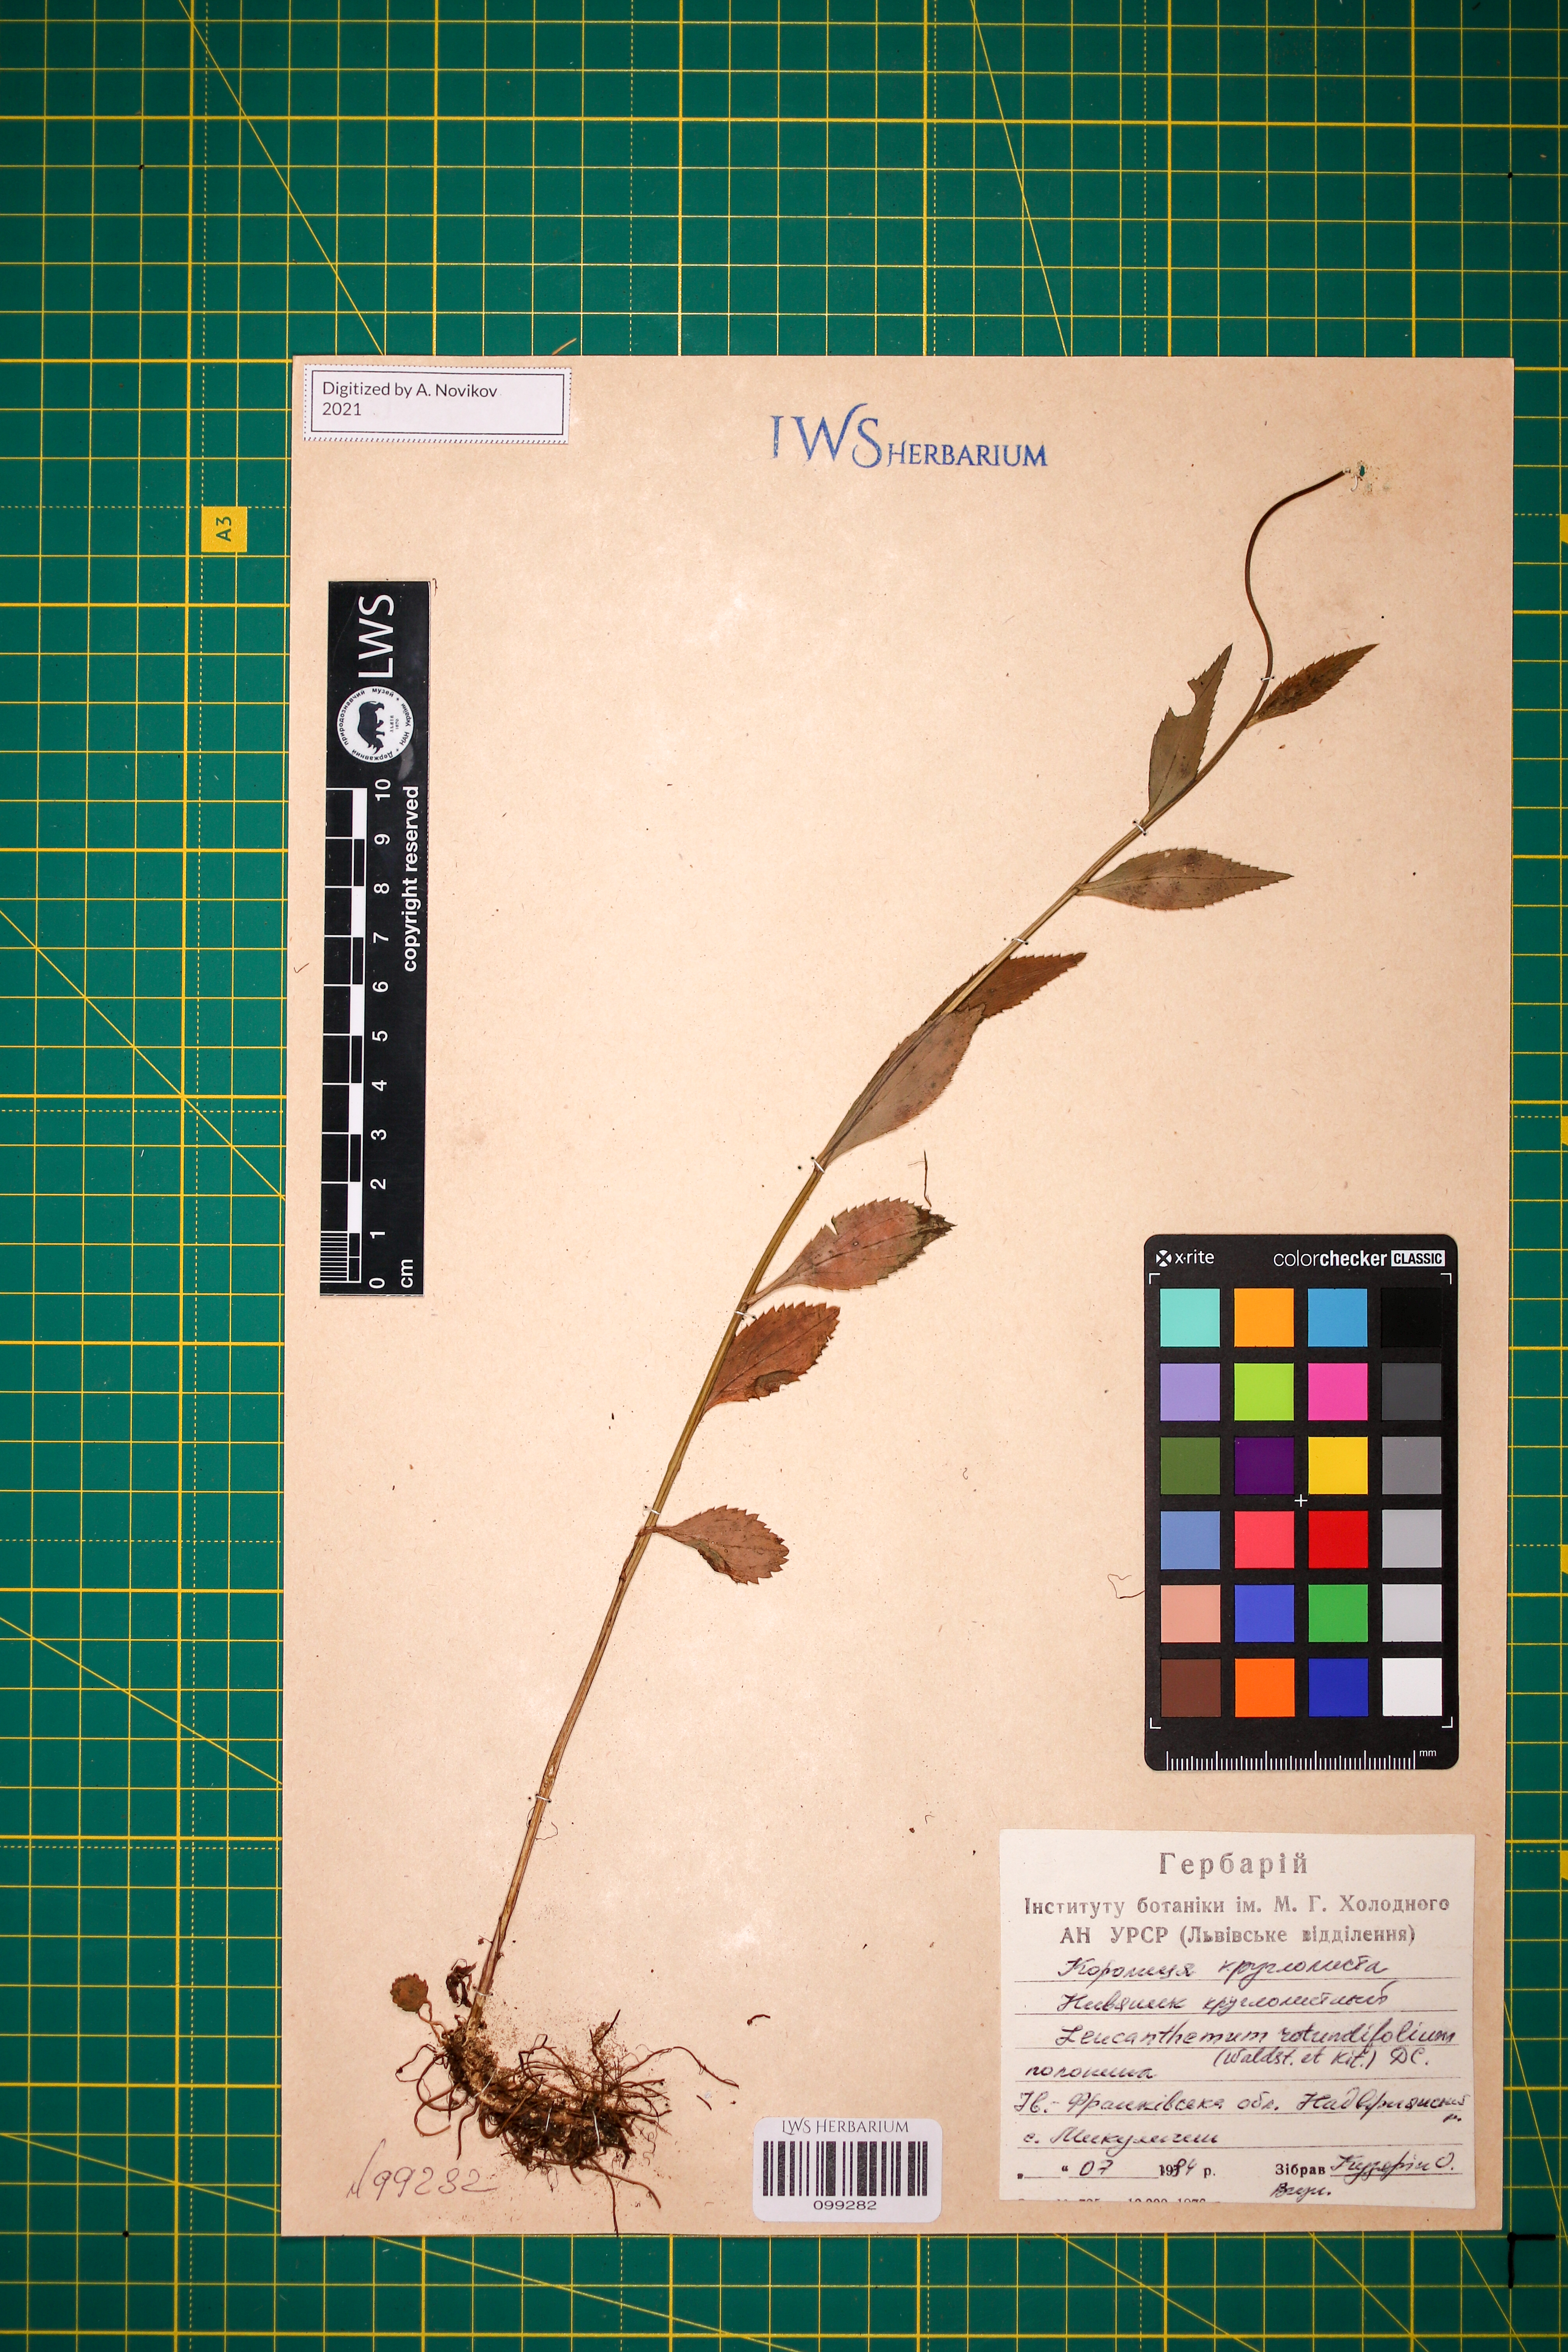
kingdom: Plantae
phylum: Tracheophyta
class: Magnoliopsida
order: Asterales
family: Asteraceae
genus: Leucanthemum
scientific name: Leucanthemum rotundifolium
